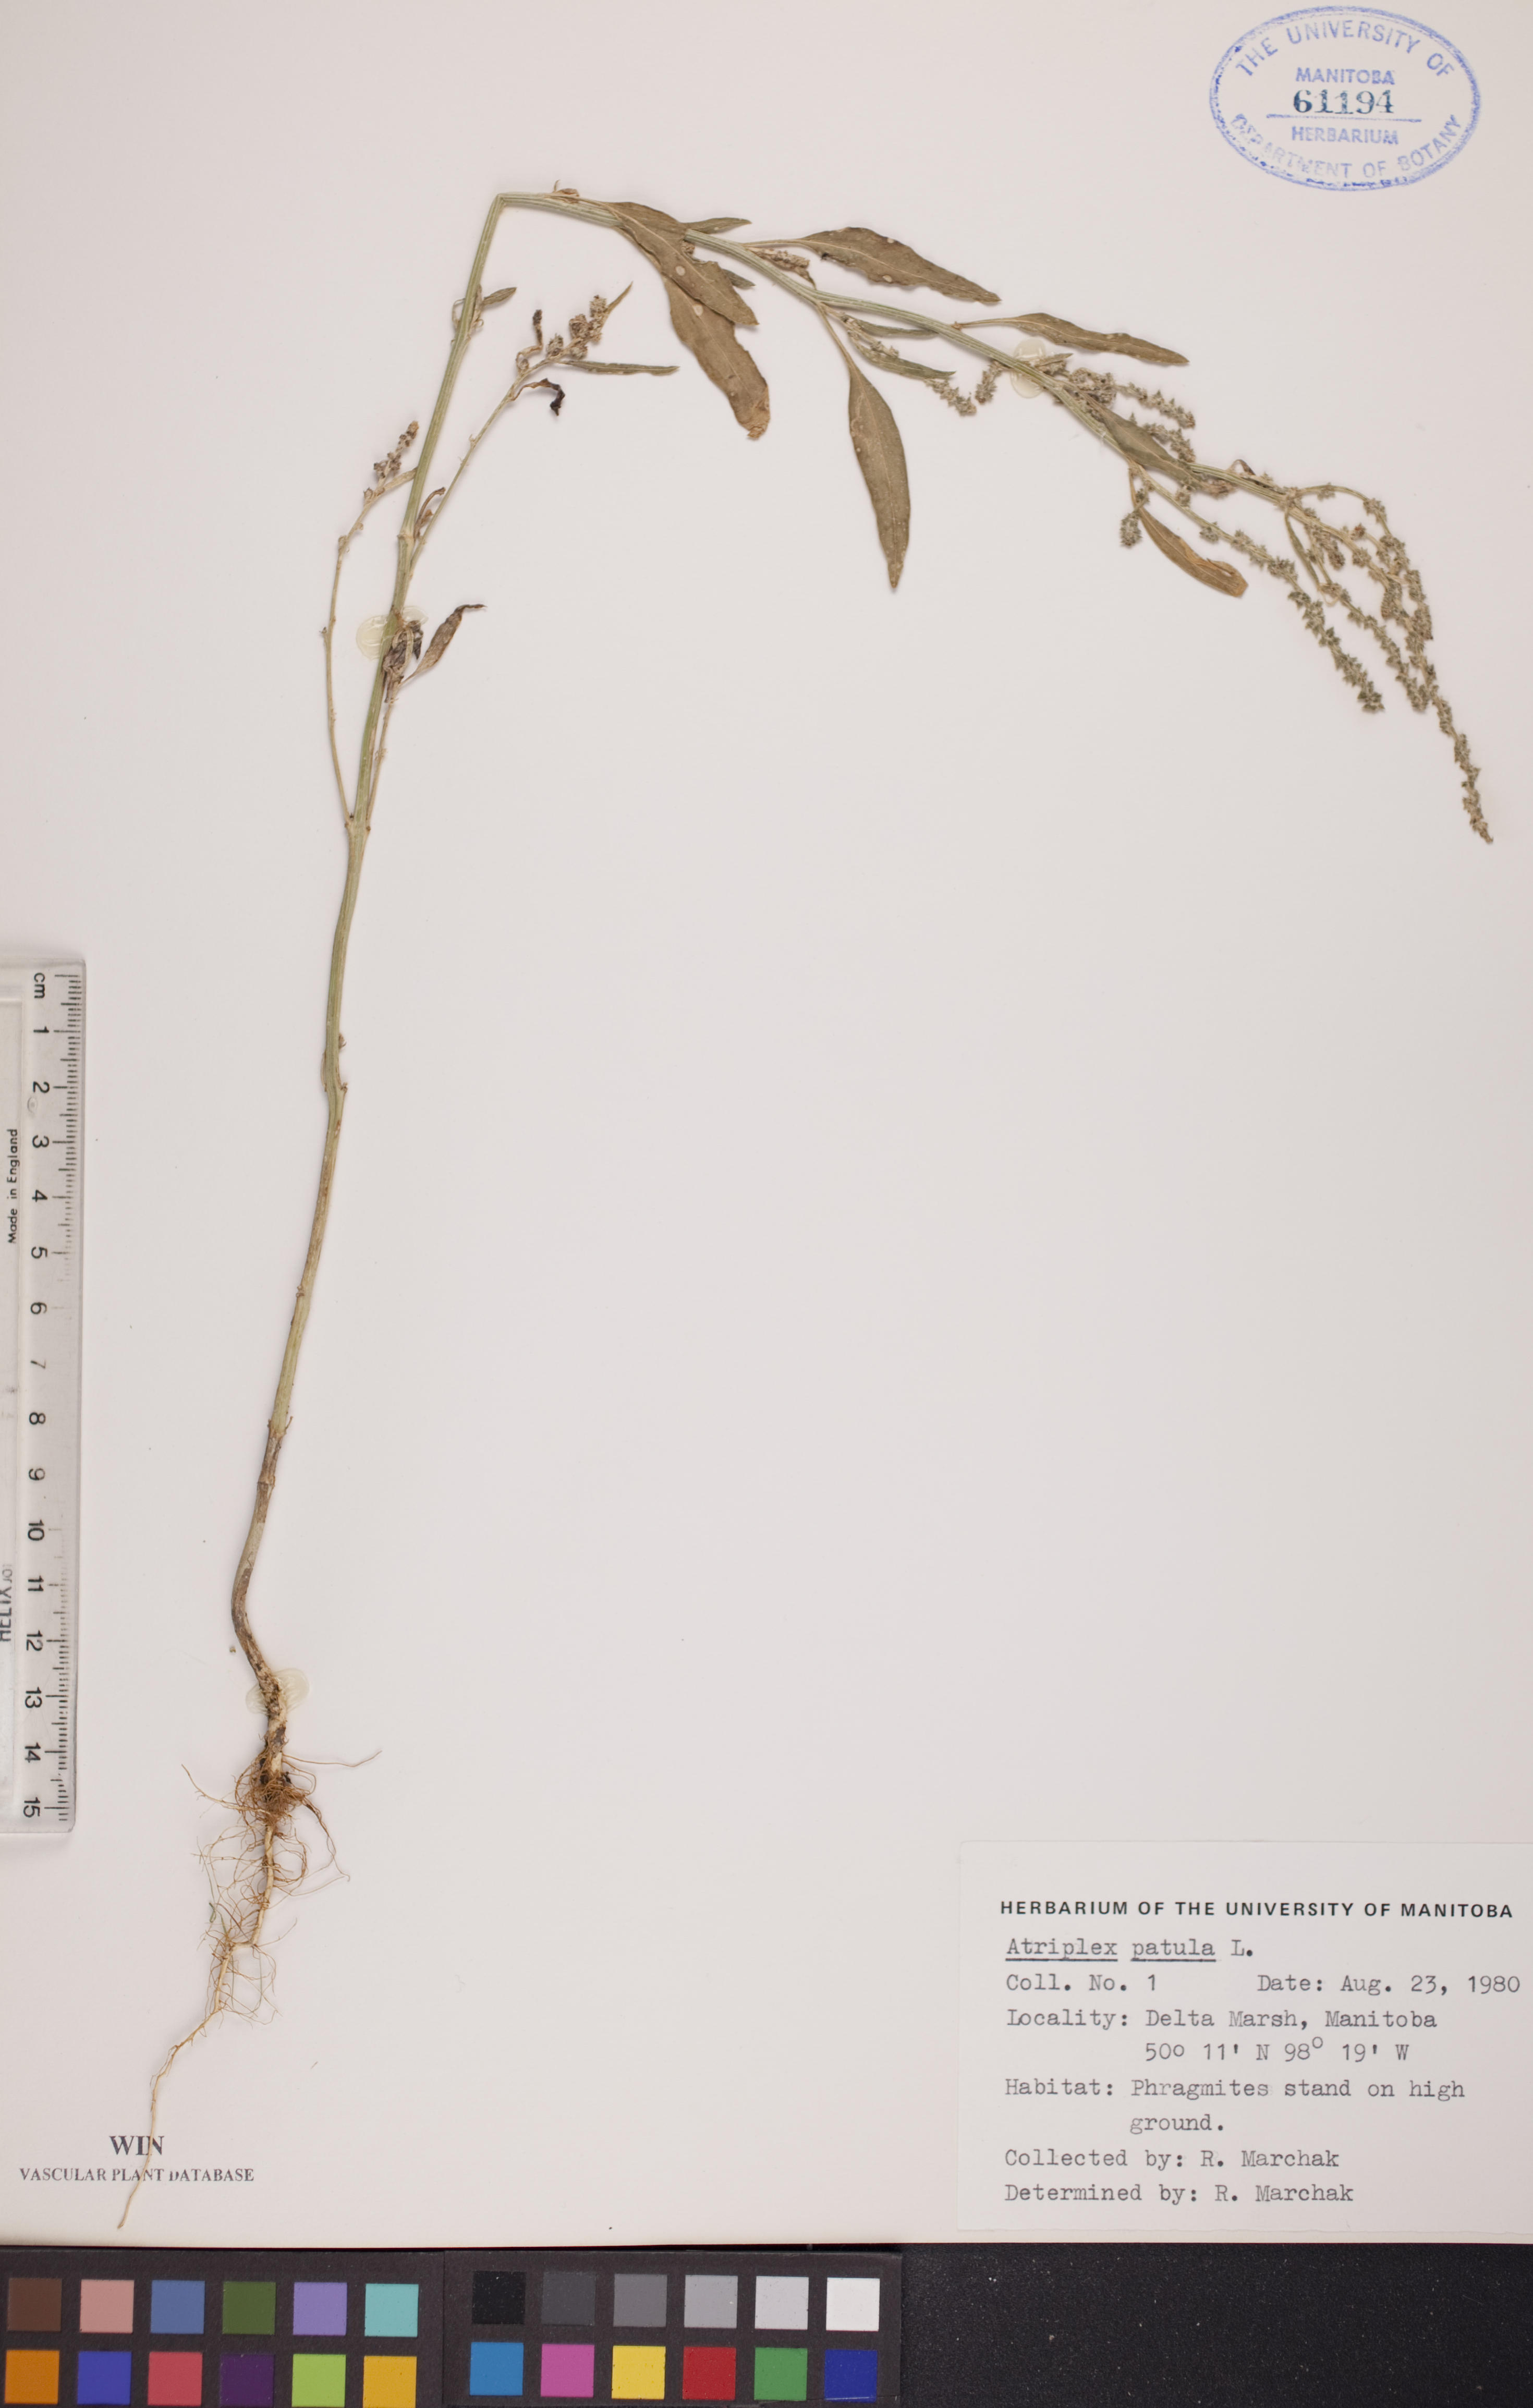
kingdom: Plantae
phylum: Tracheophyta
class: Magnoliopsida
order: Caryophyllales
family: Amaranthaceae
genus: Atriplex
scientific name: Atriplex patula
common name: Common orache
